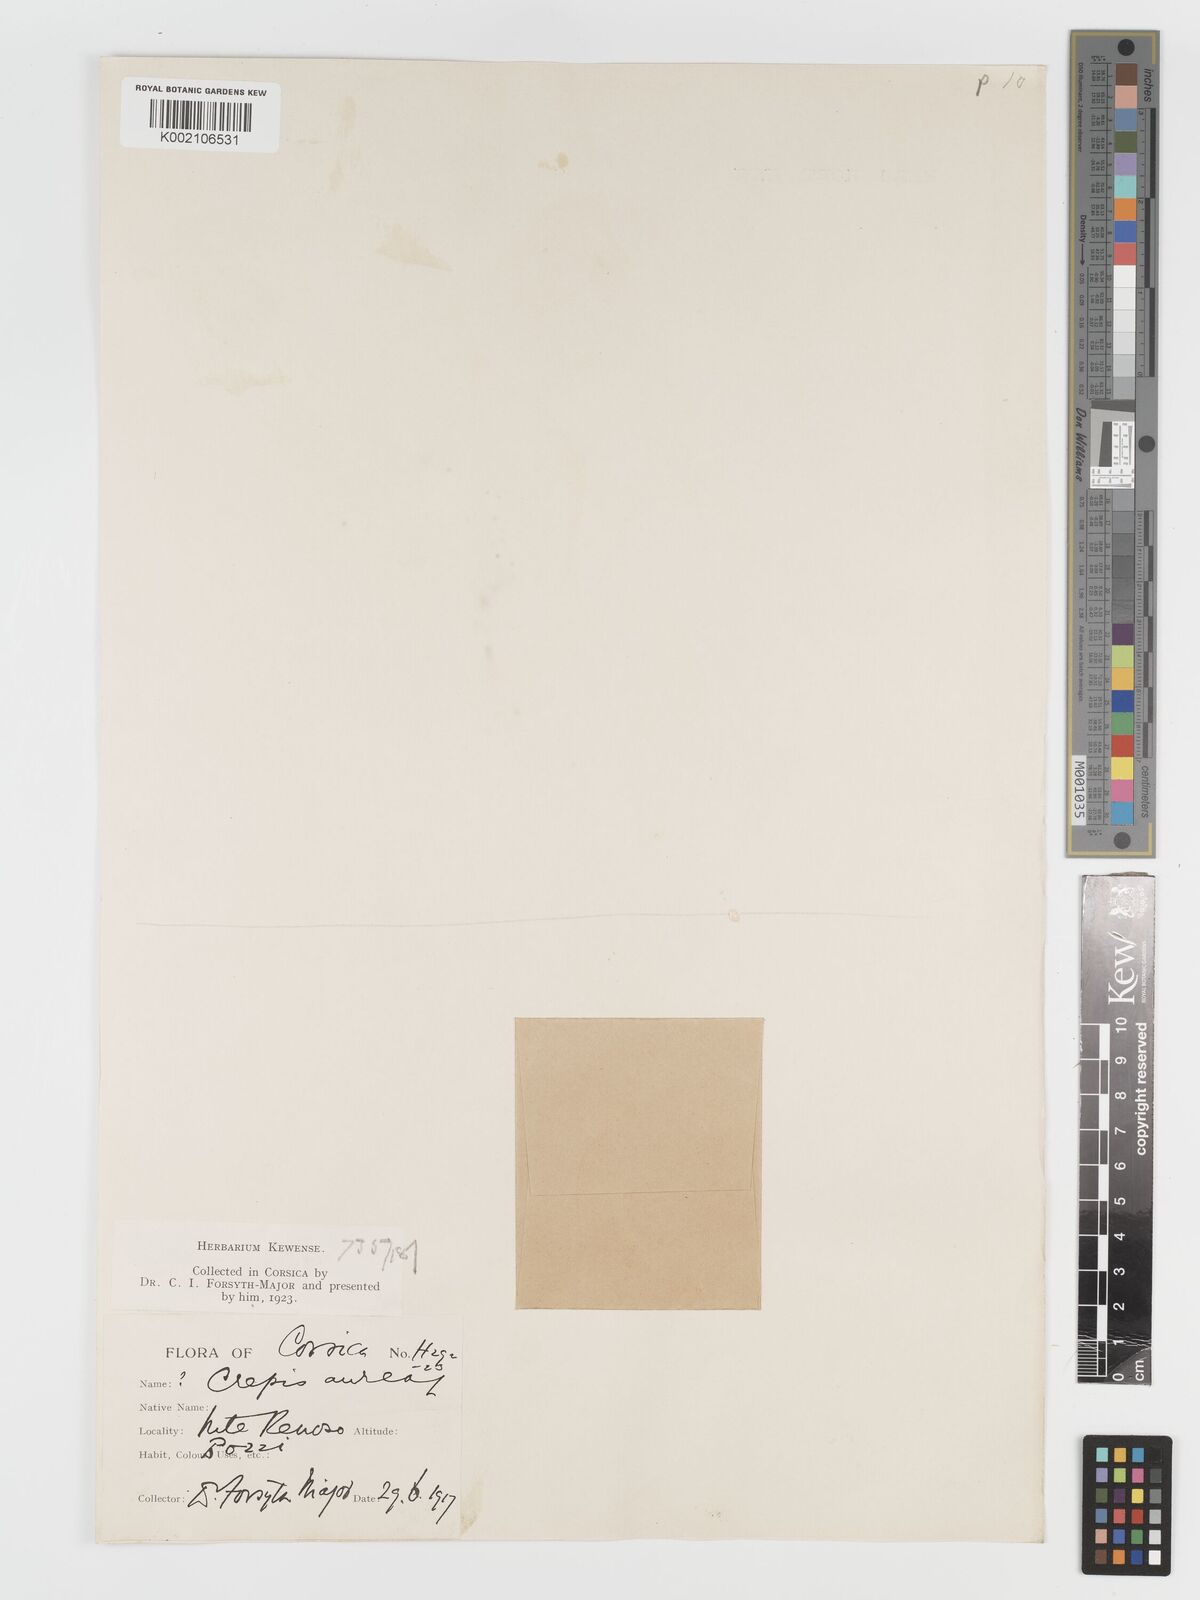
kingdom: Plantae
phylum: Tracheophyta
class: Magnoliopsida
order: Asterales
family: Asteraceae
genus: Crepis
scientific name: Crepis aurea
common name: Golden hawk's-beard
